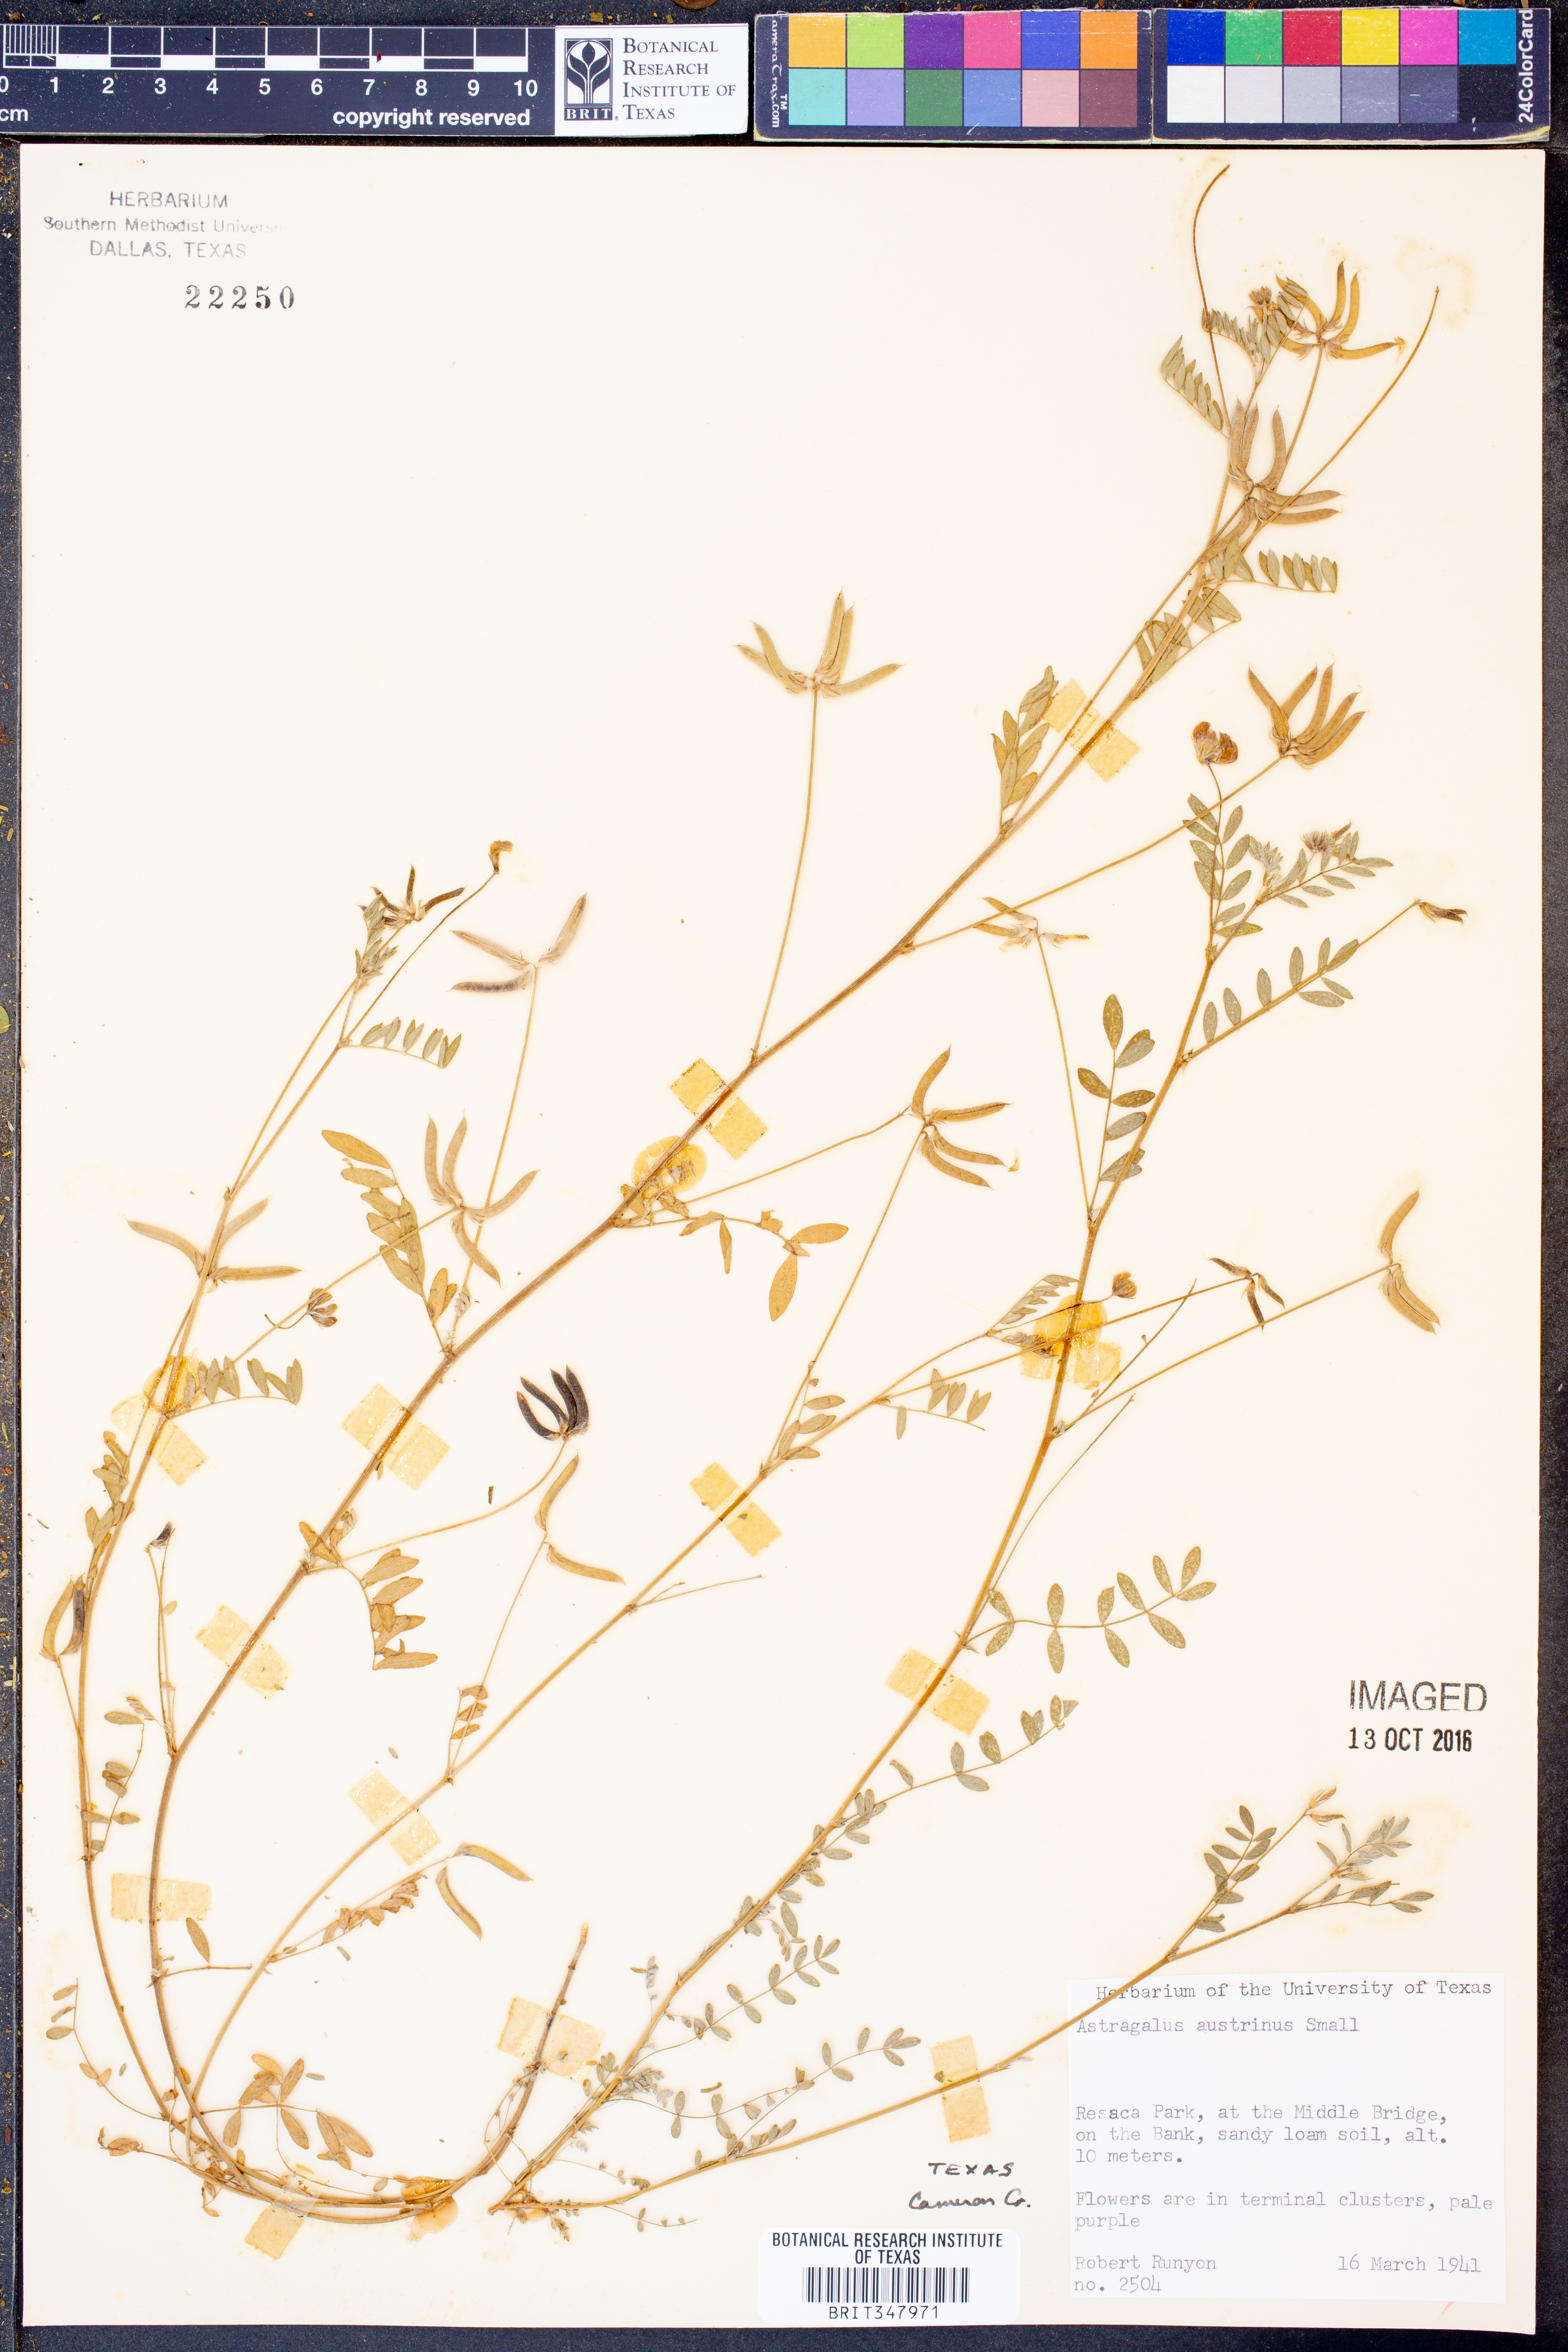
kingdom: Plantae
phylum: Tracheophyta
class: Magnoliopsida
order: Fabales
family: Fabaceae
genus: Astragalus
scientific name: Astragalus nuttallianus
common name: Smallflowered milkvetch
